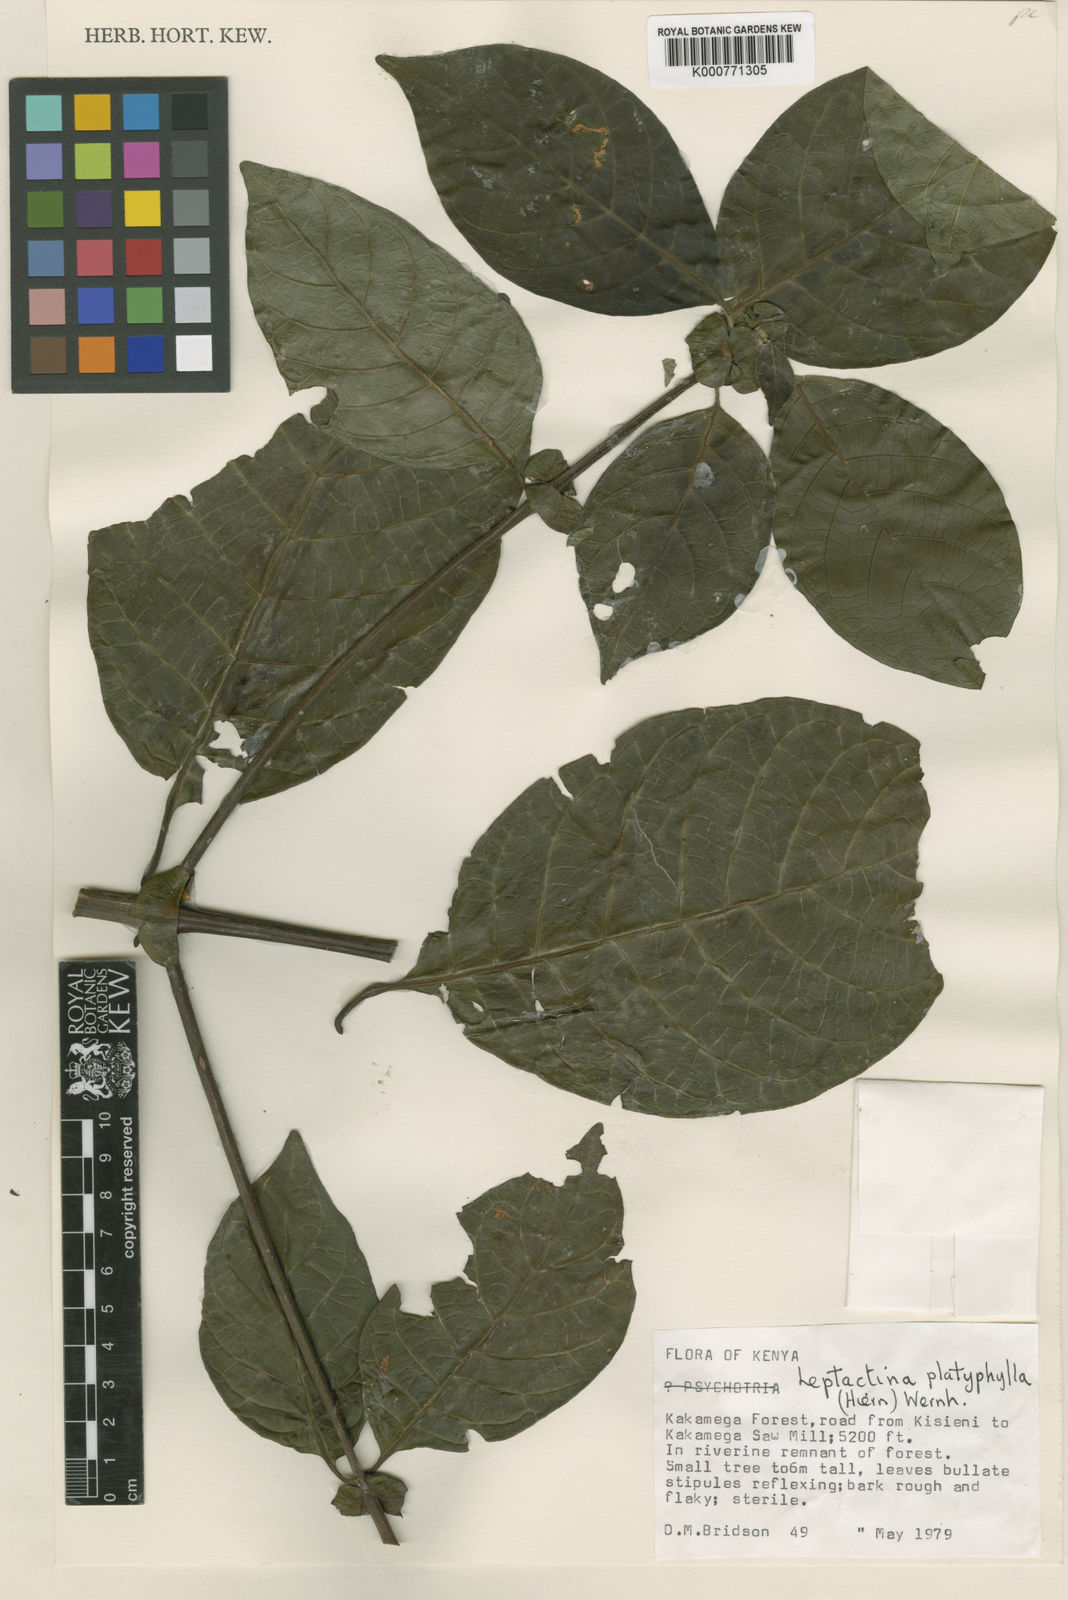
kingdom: Plantae
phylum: Tracheophyta
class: Magnoliopsida
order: Gentianales
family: Rubiaceae
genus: Leptactina
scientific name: Leptactina platyphylla
